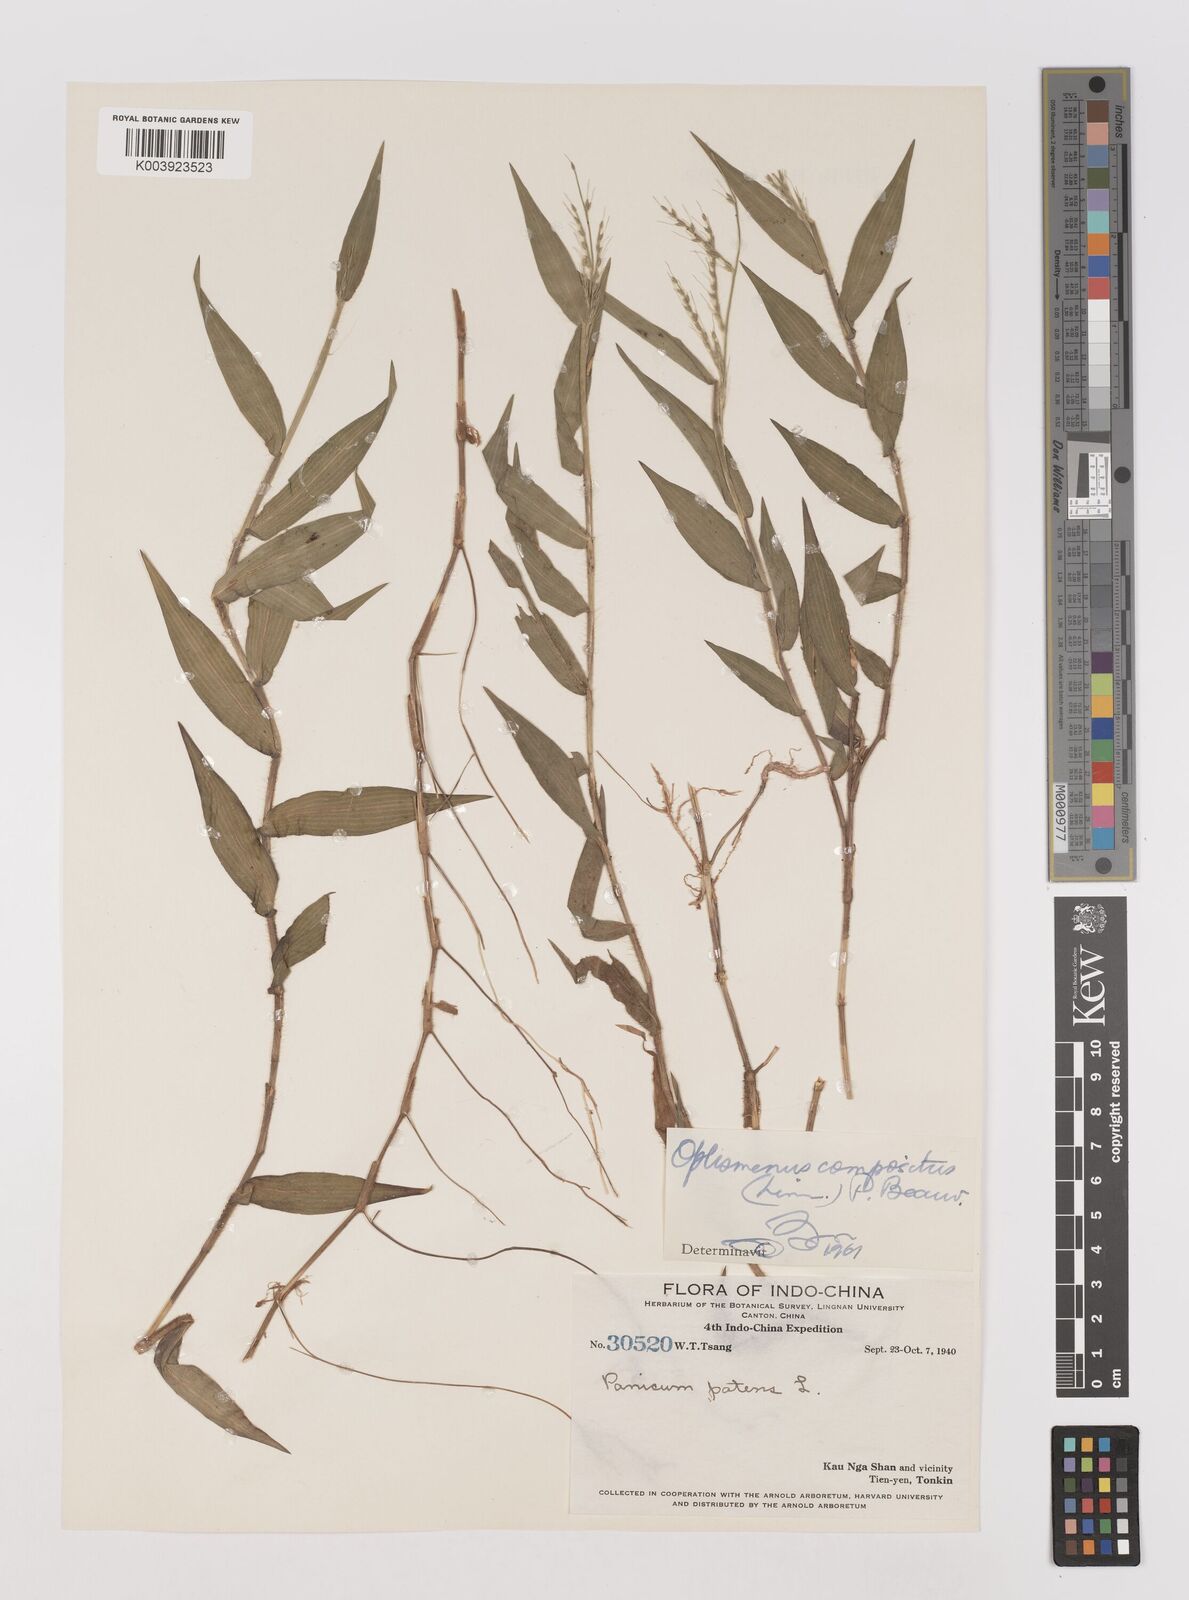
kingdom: Plantae
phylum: Tracheophyta
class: Liliopsida
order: Poales
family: Poaceae
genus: Oplismenus
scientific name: Oplismenus compositus
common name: Running mountain grass
